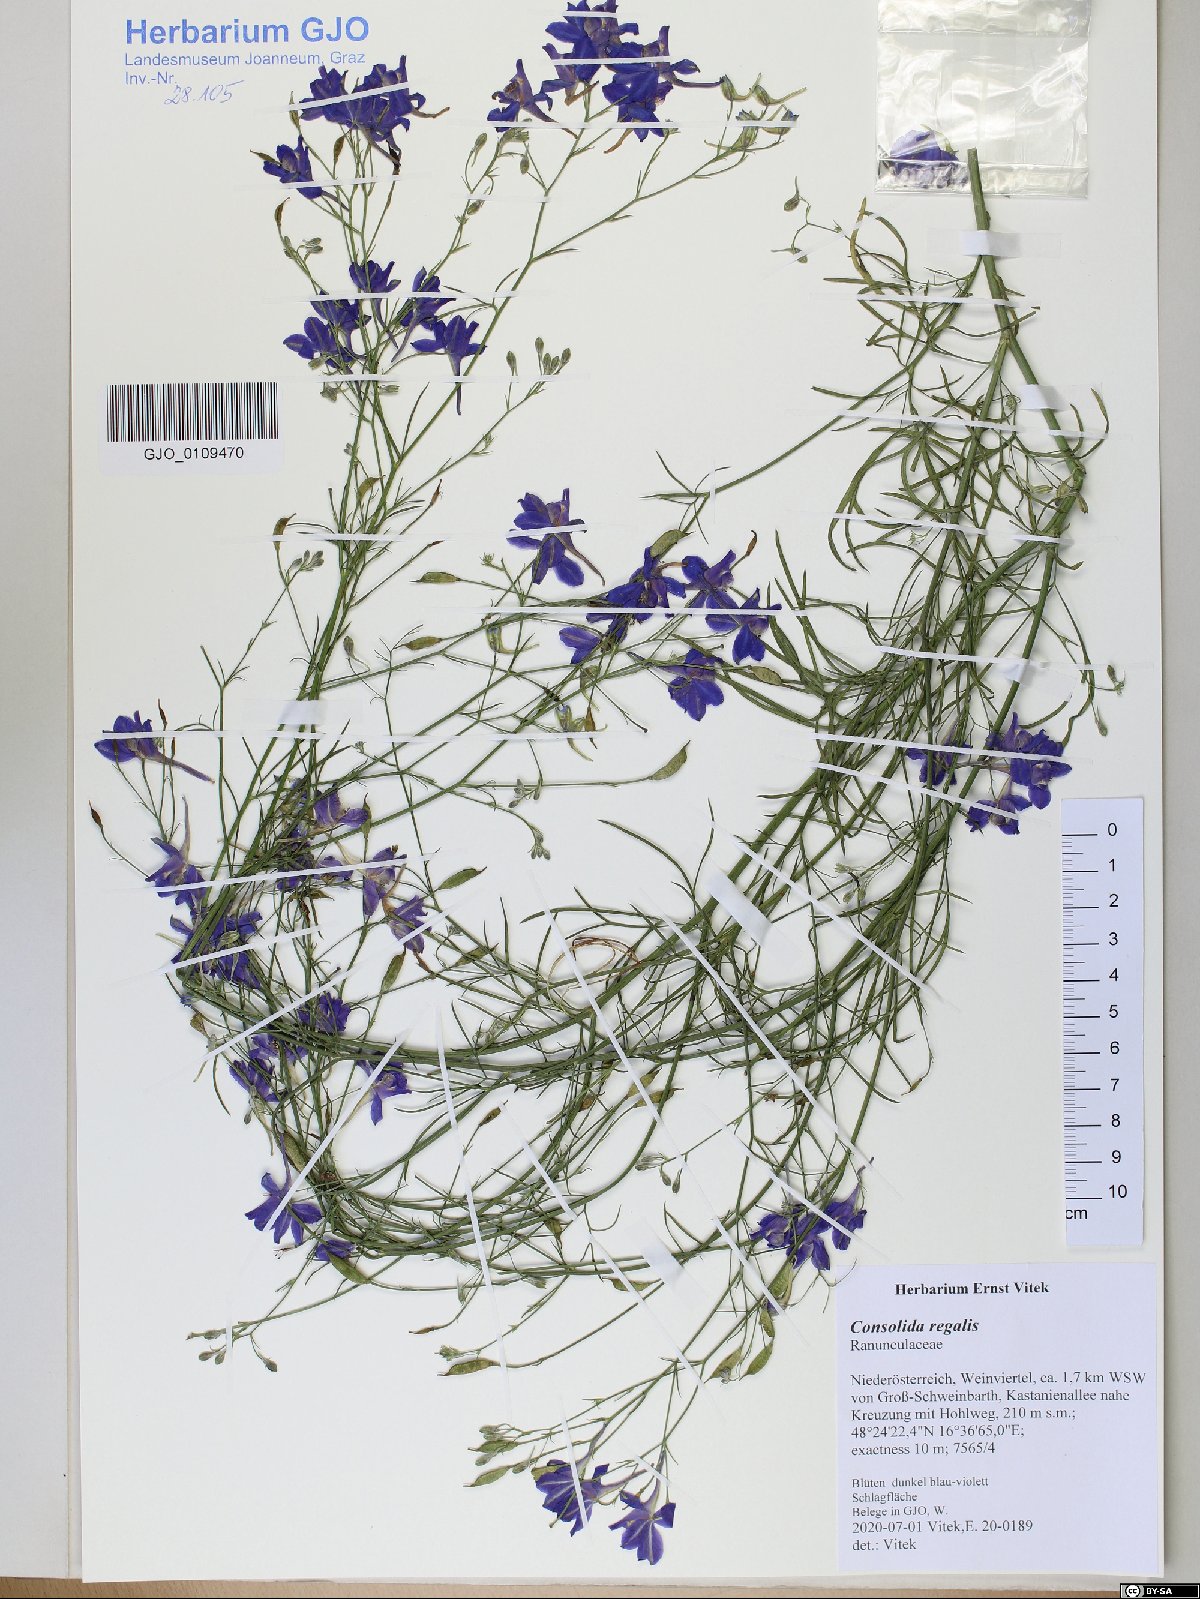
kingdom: Plantae
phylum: Tracheophyta
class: Magnoliopsida
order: Ranunculales
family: Ranunculaceae
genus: Delphinium
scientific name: Delphinium consolida
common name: Branching larkspur
